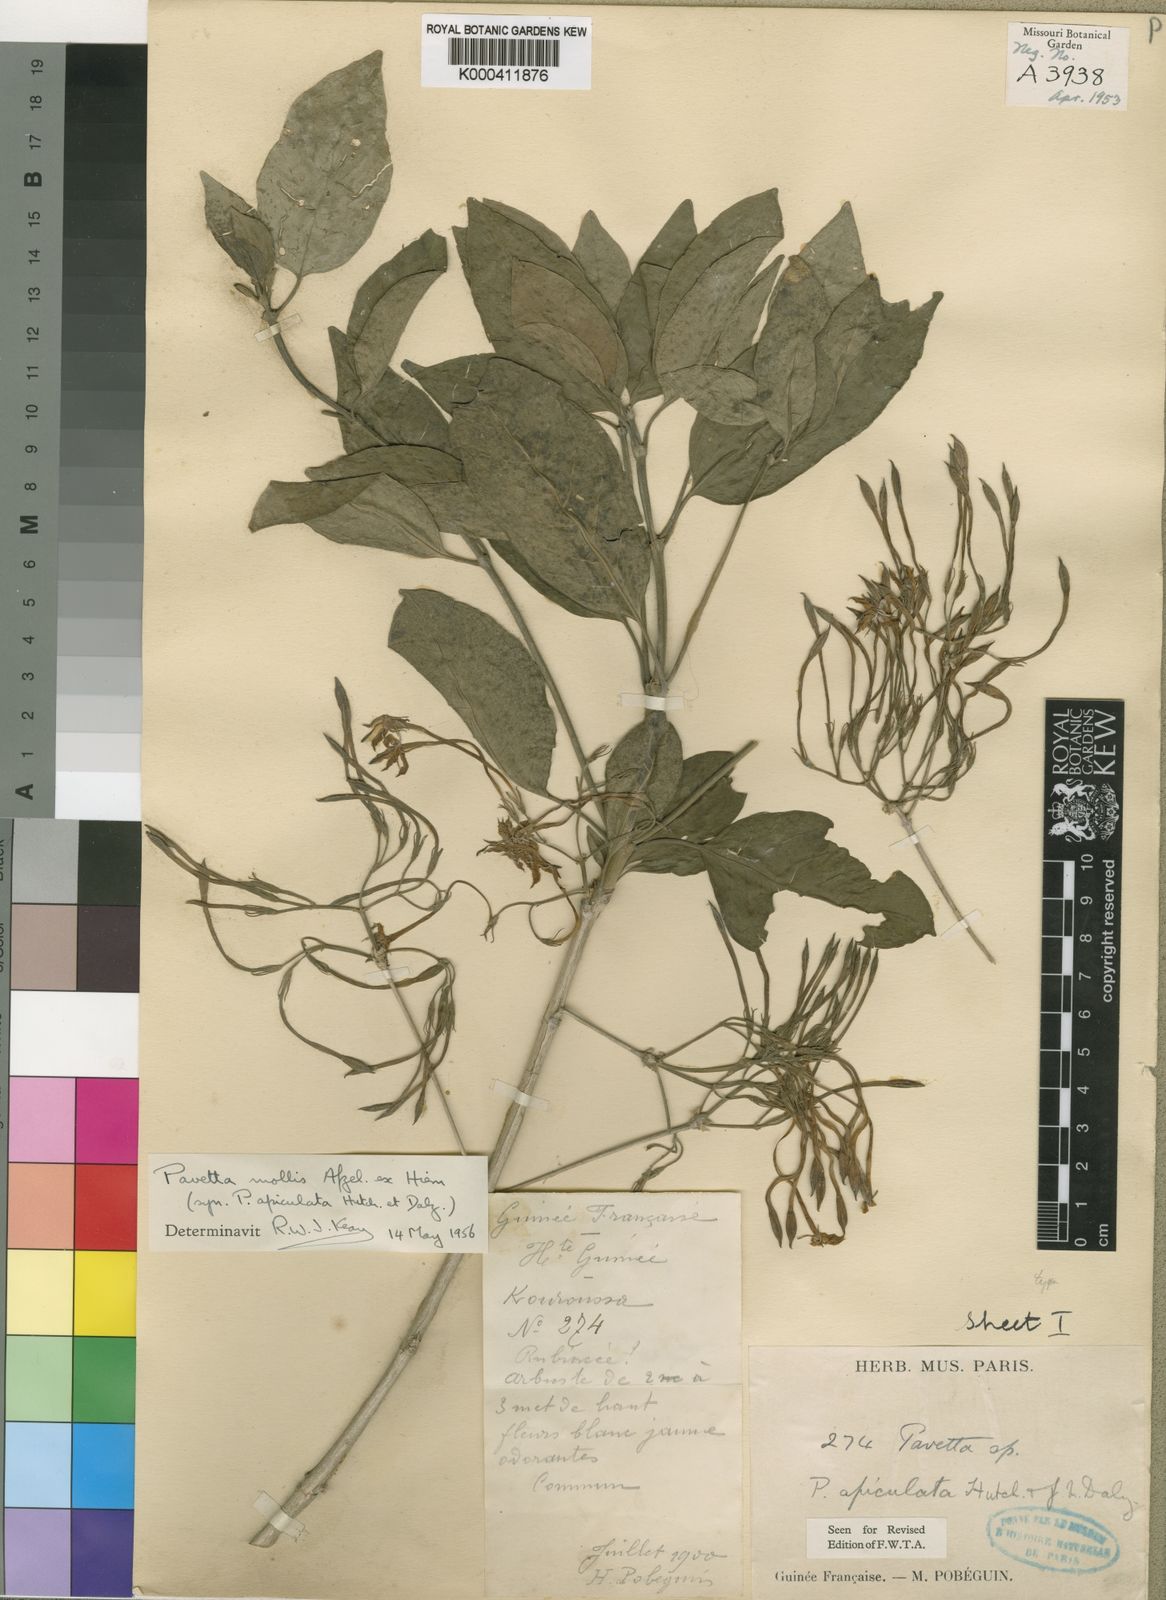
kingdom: Plantae
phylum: Tracheophyta
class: Magnoliopsida
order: Gentianales
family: Rubiaceae
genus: Pavetta
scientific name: Pavetta mollis
